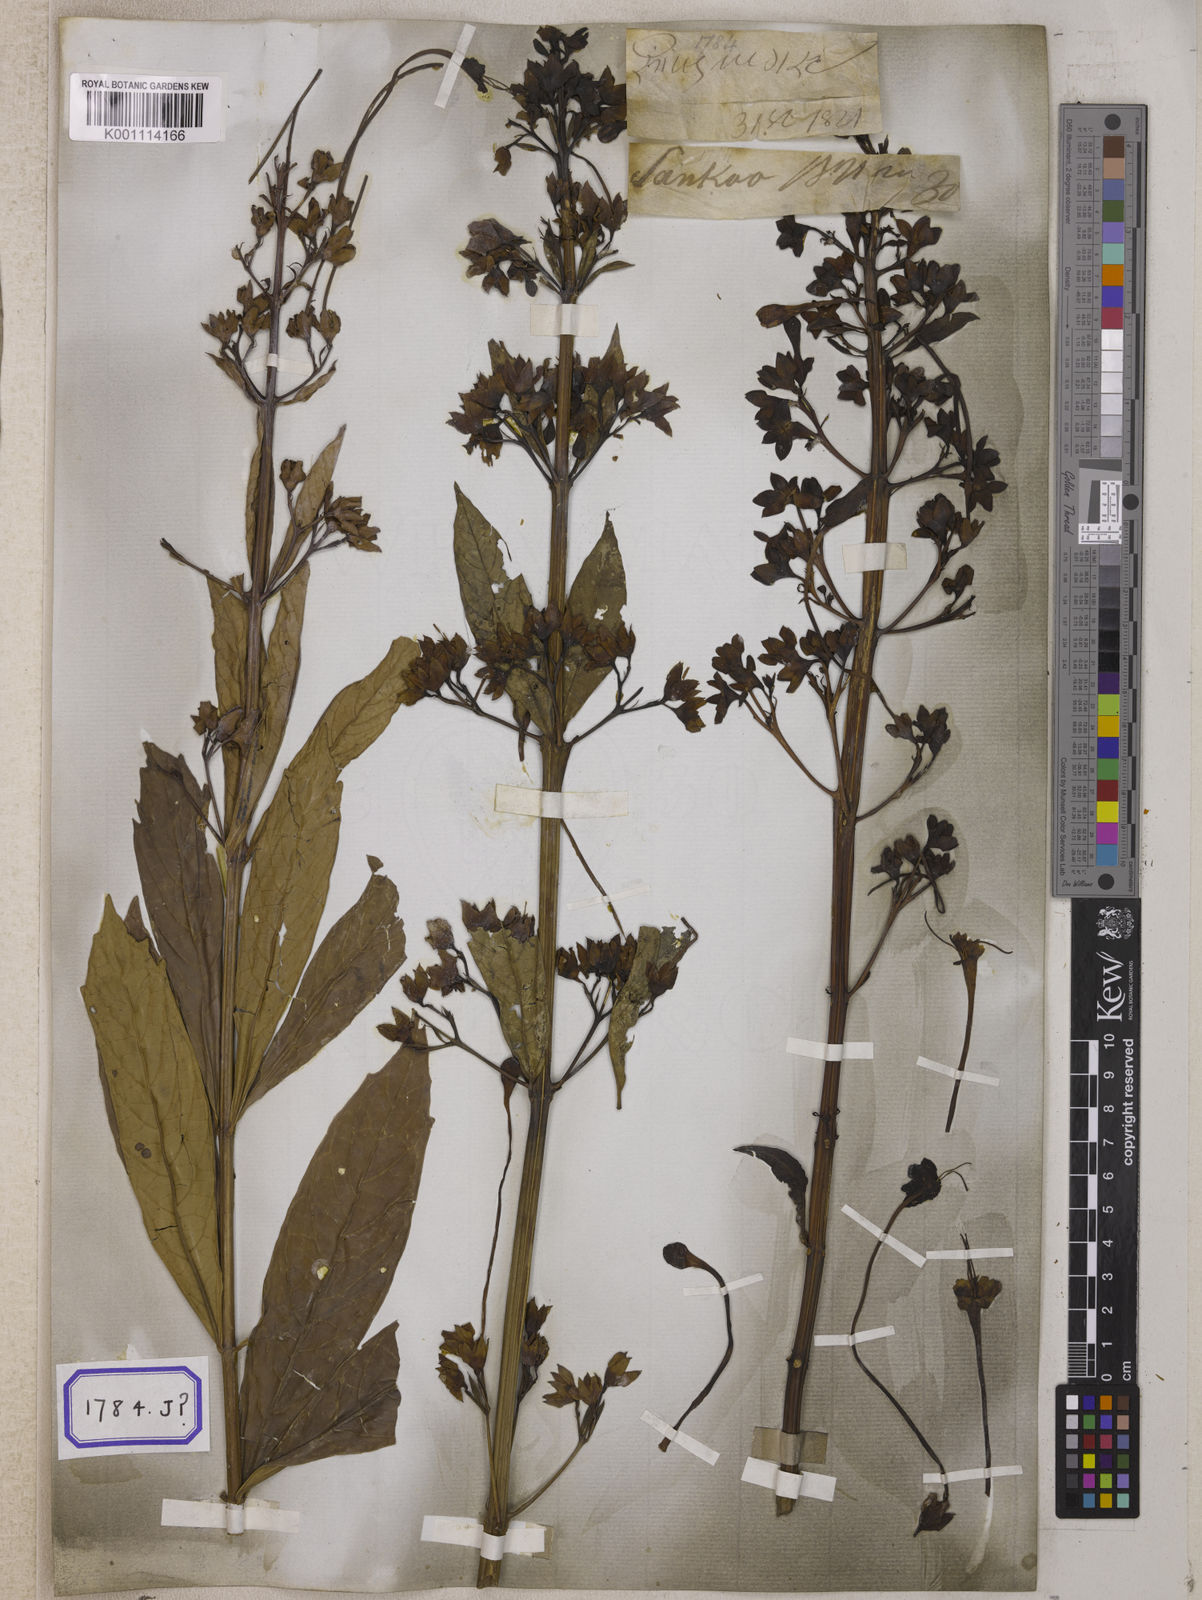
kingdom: Plantae
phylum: Tracheophyta
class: Magnoliopsida
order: Lamiales
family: Lamiaceae
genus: Clerodendrum
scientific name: Clerodendrum indicum
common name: Turk's turbin
